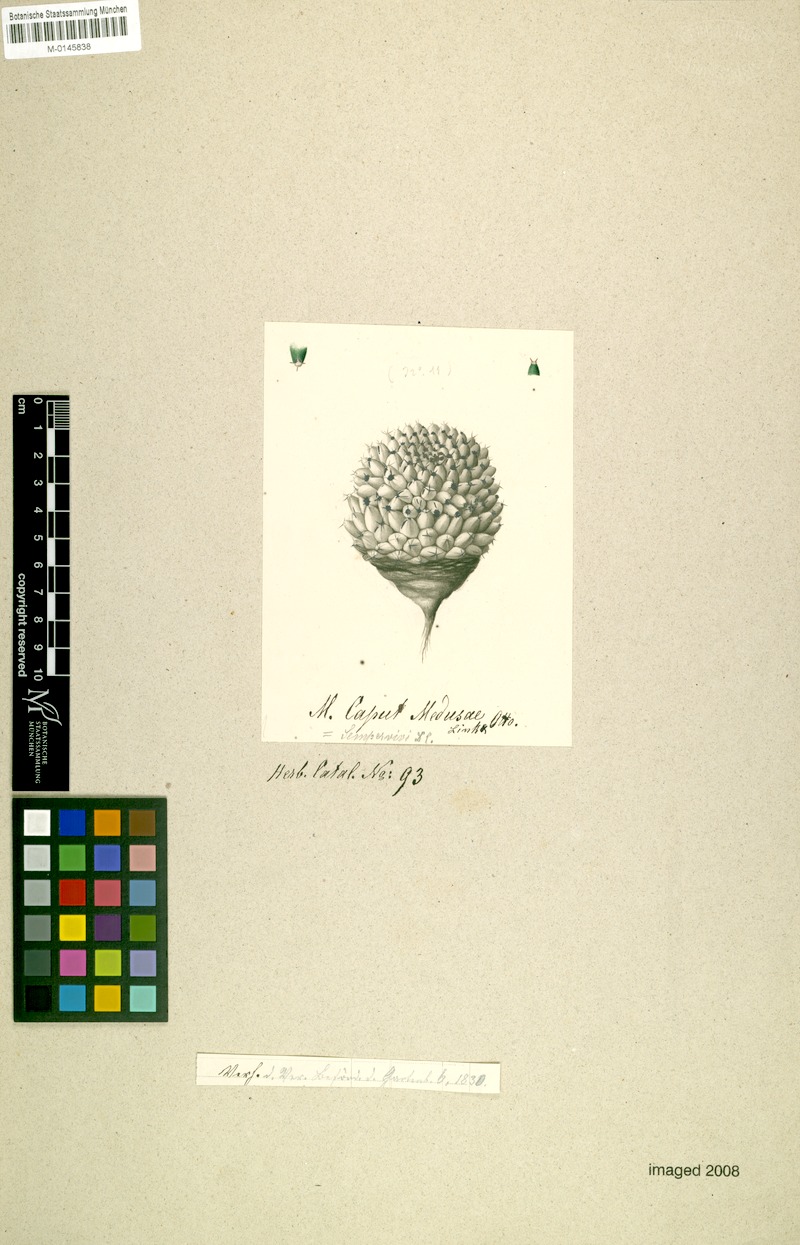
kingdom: Plantae
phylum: Tracheophyta
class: Magnoliopsida
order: Caryophyllales
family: Cactaceae
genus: Mammillaria
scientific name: Mammillaria sempervivi
